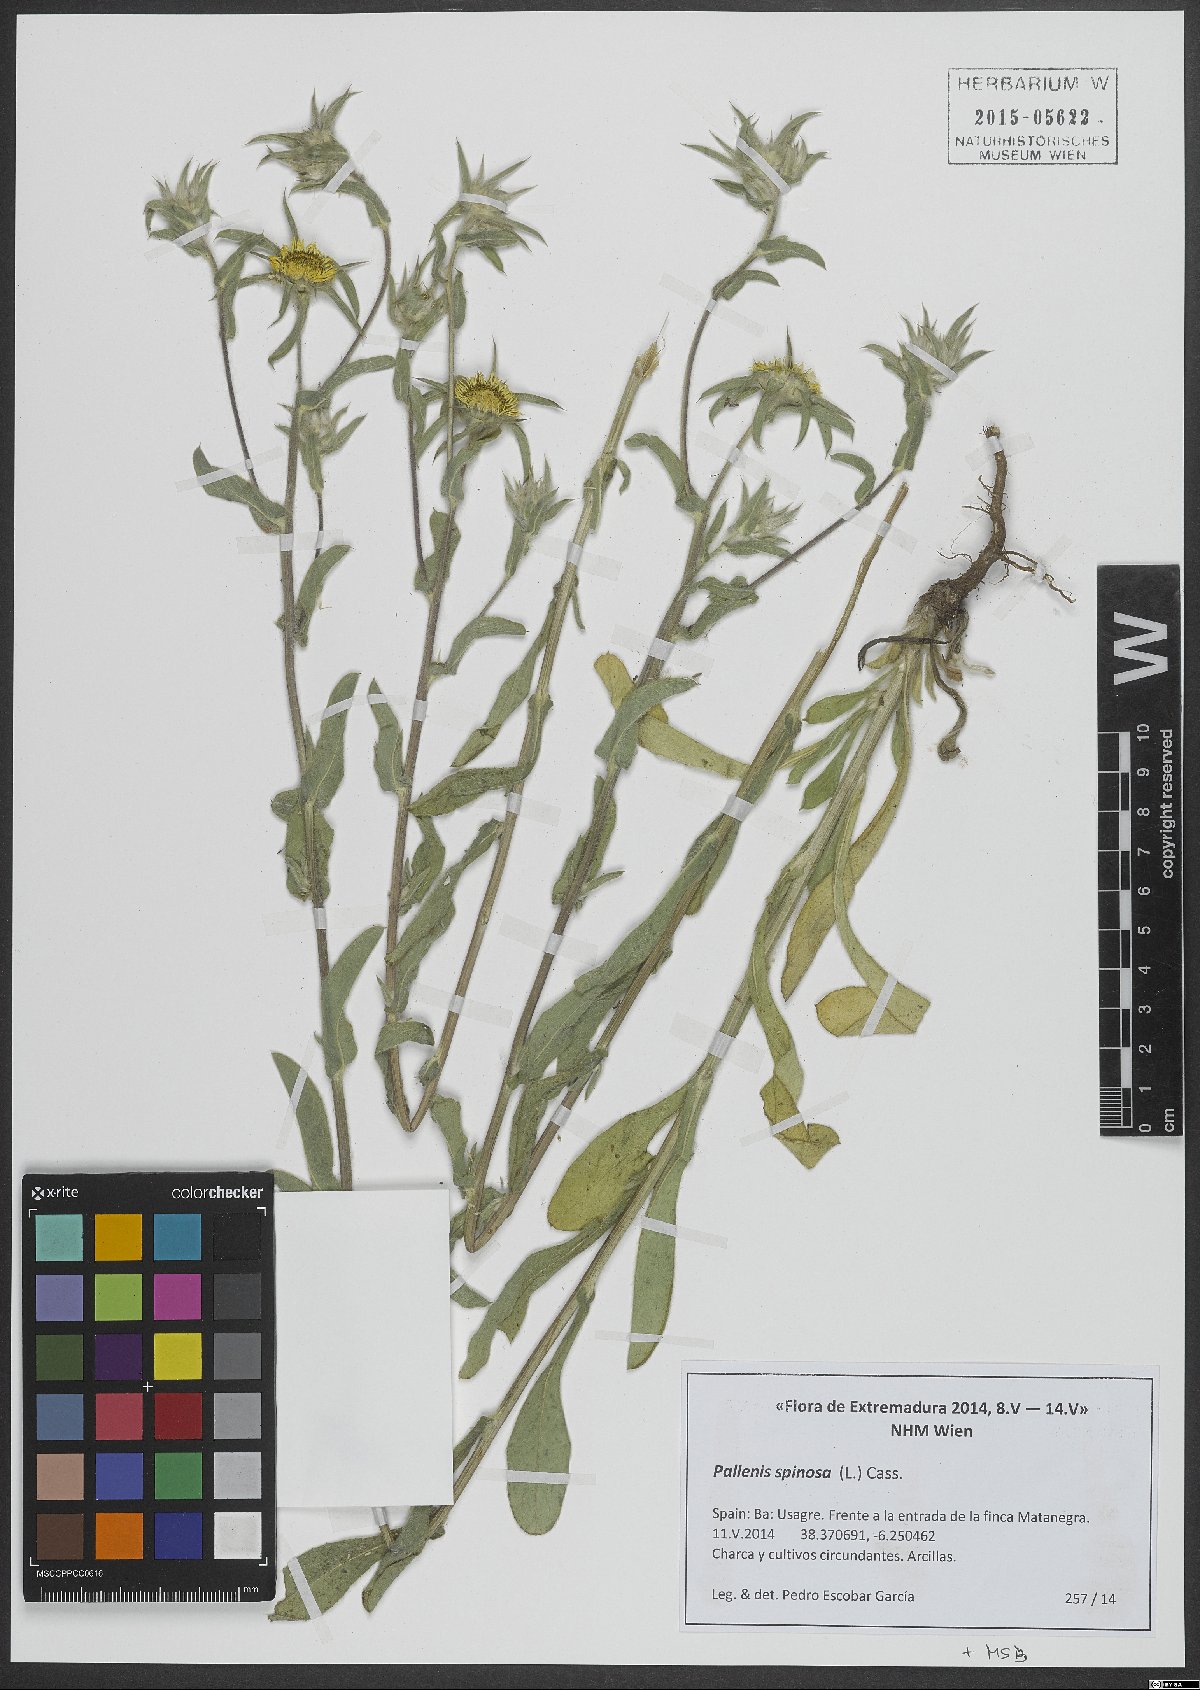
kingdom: Plantae
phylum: Tracheophyta
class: Magnoliopsida
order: Asterales
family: Asteraceae
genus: Pallenis
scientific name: Pallenis spinosa
